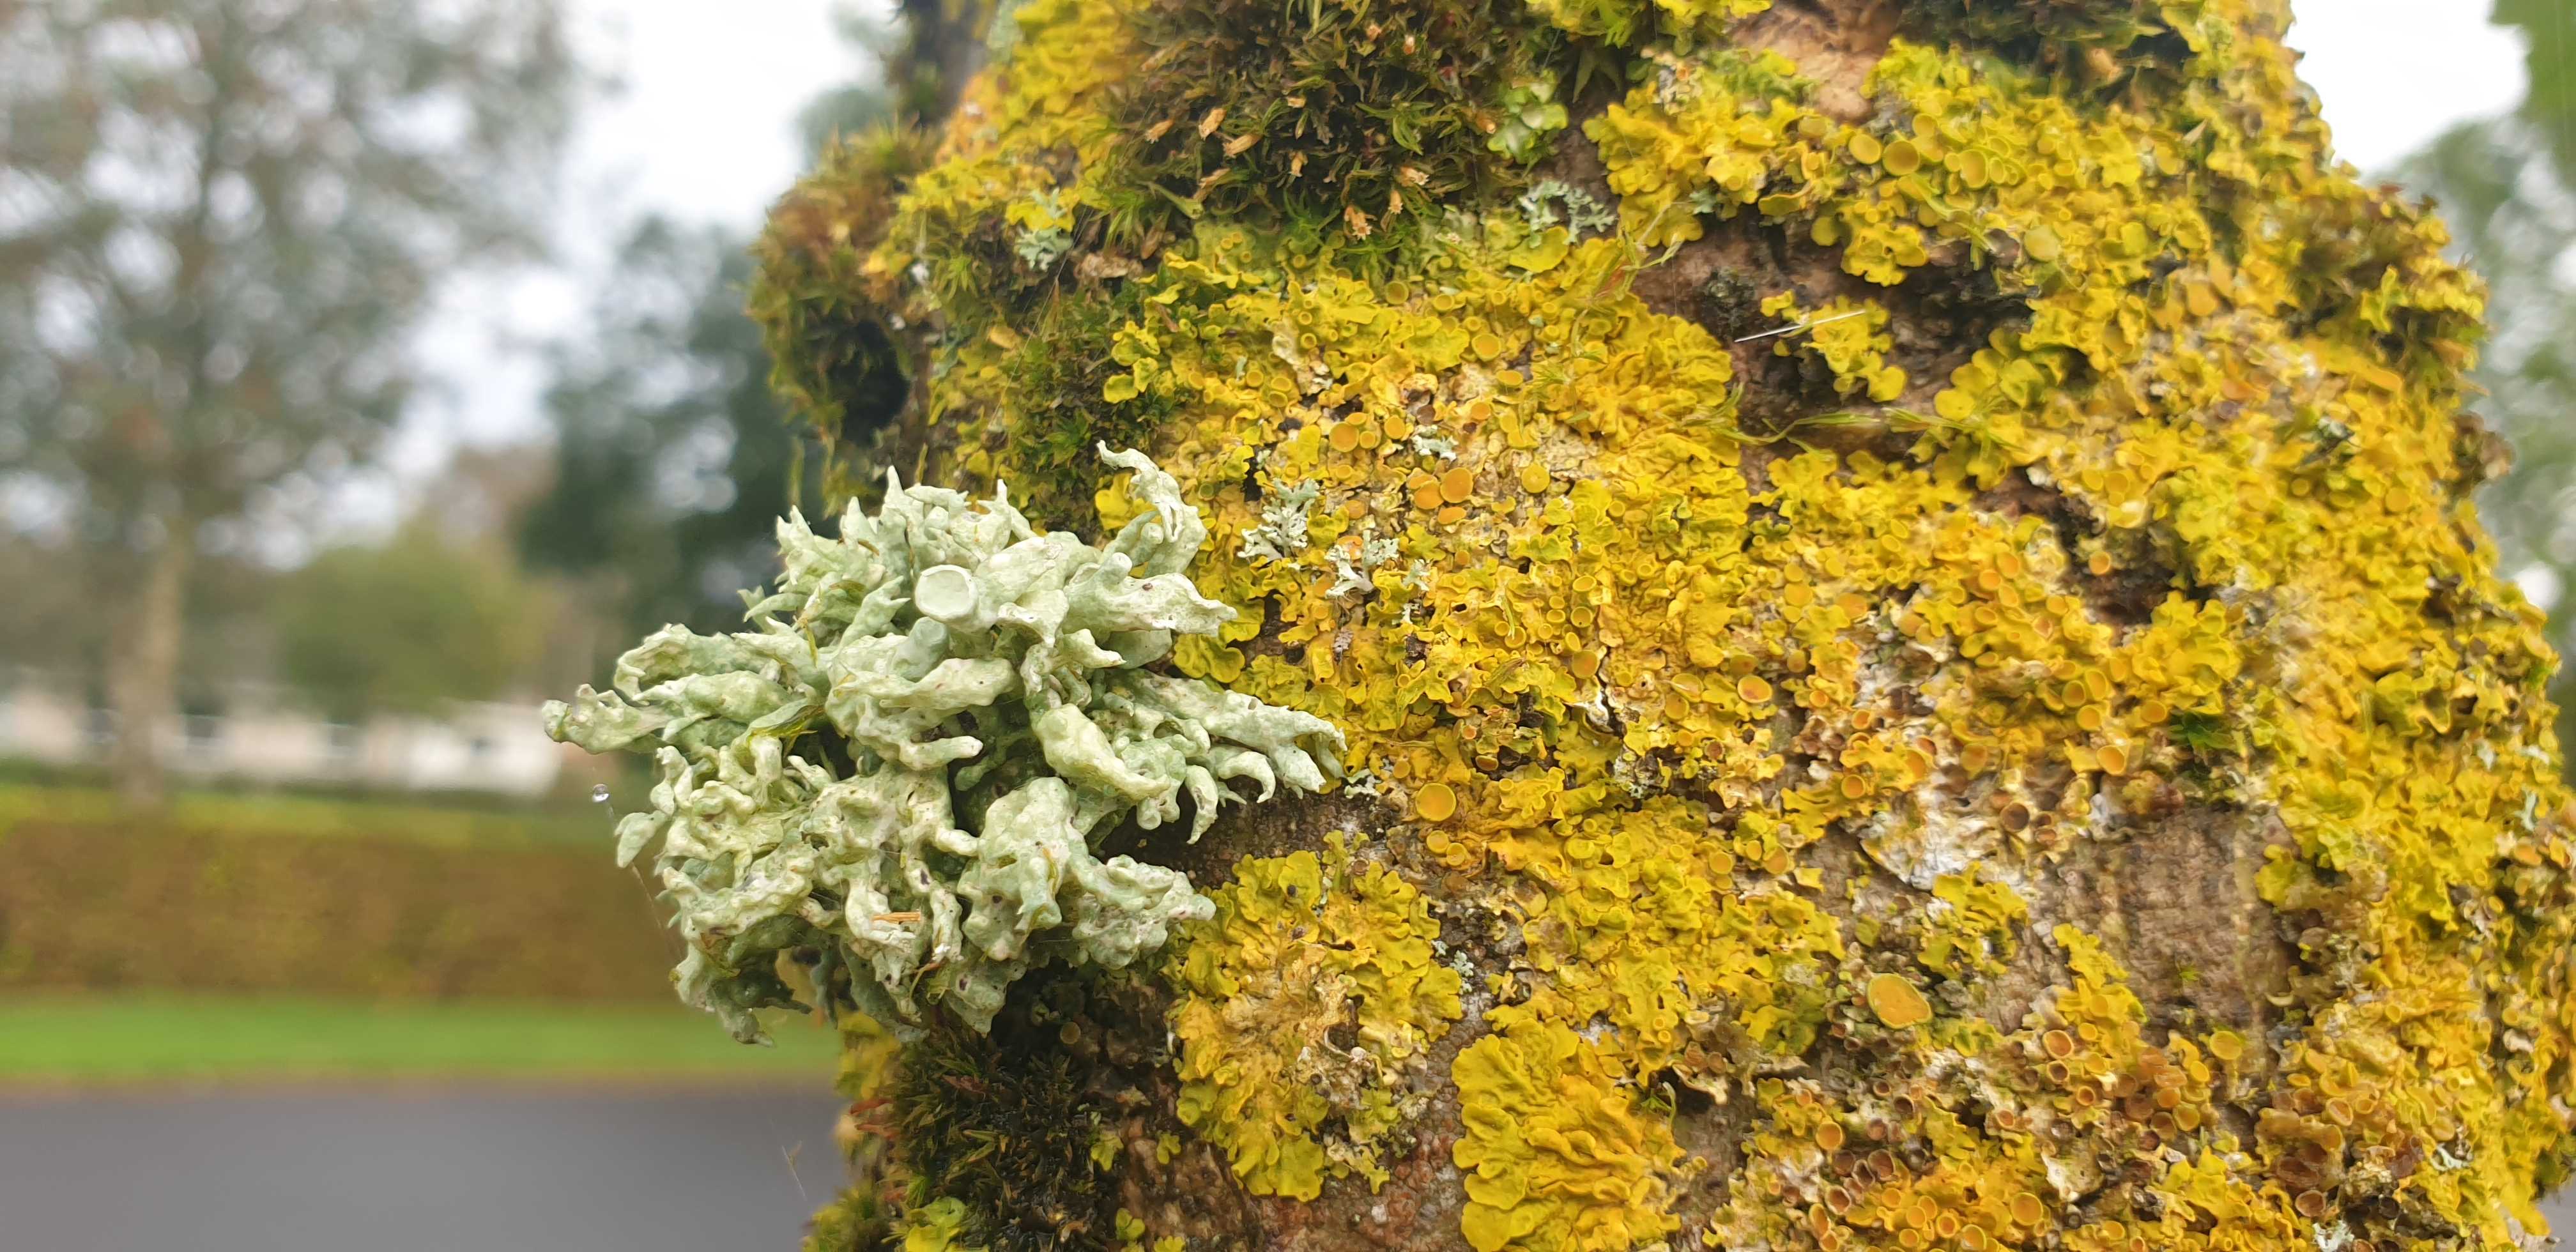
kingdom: Fungi
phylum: Ascomycota
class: Lecanoromycetes
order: Lecanorales
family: Ramalinaceae
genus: Ramalina
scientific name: Ramalina fastigiata
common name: tue-grenlav
